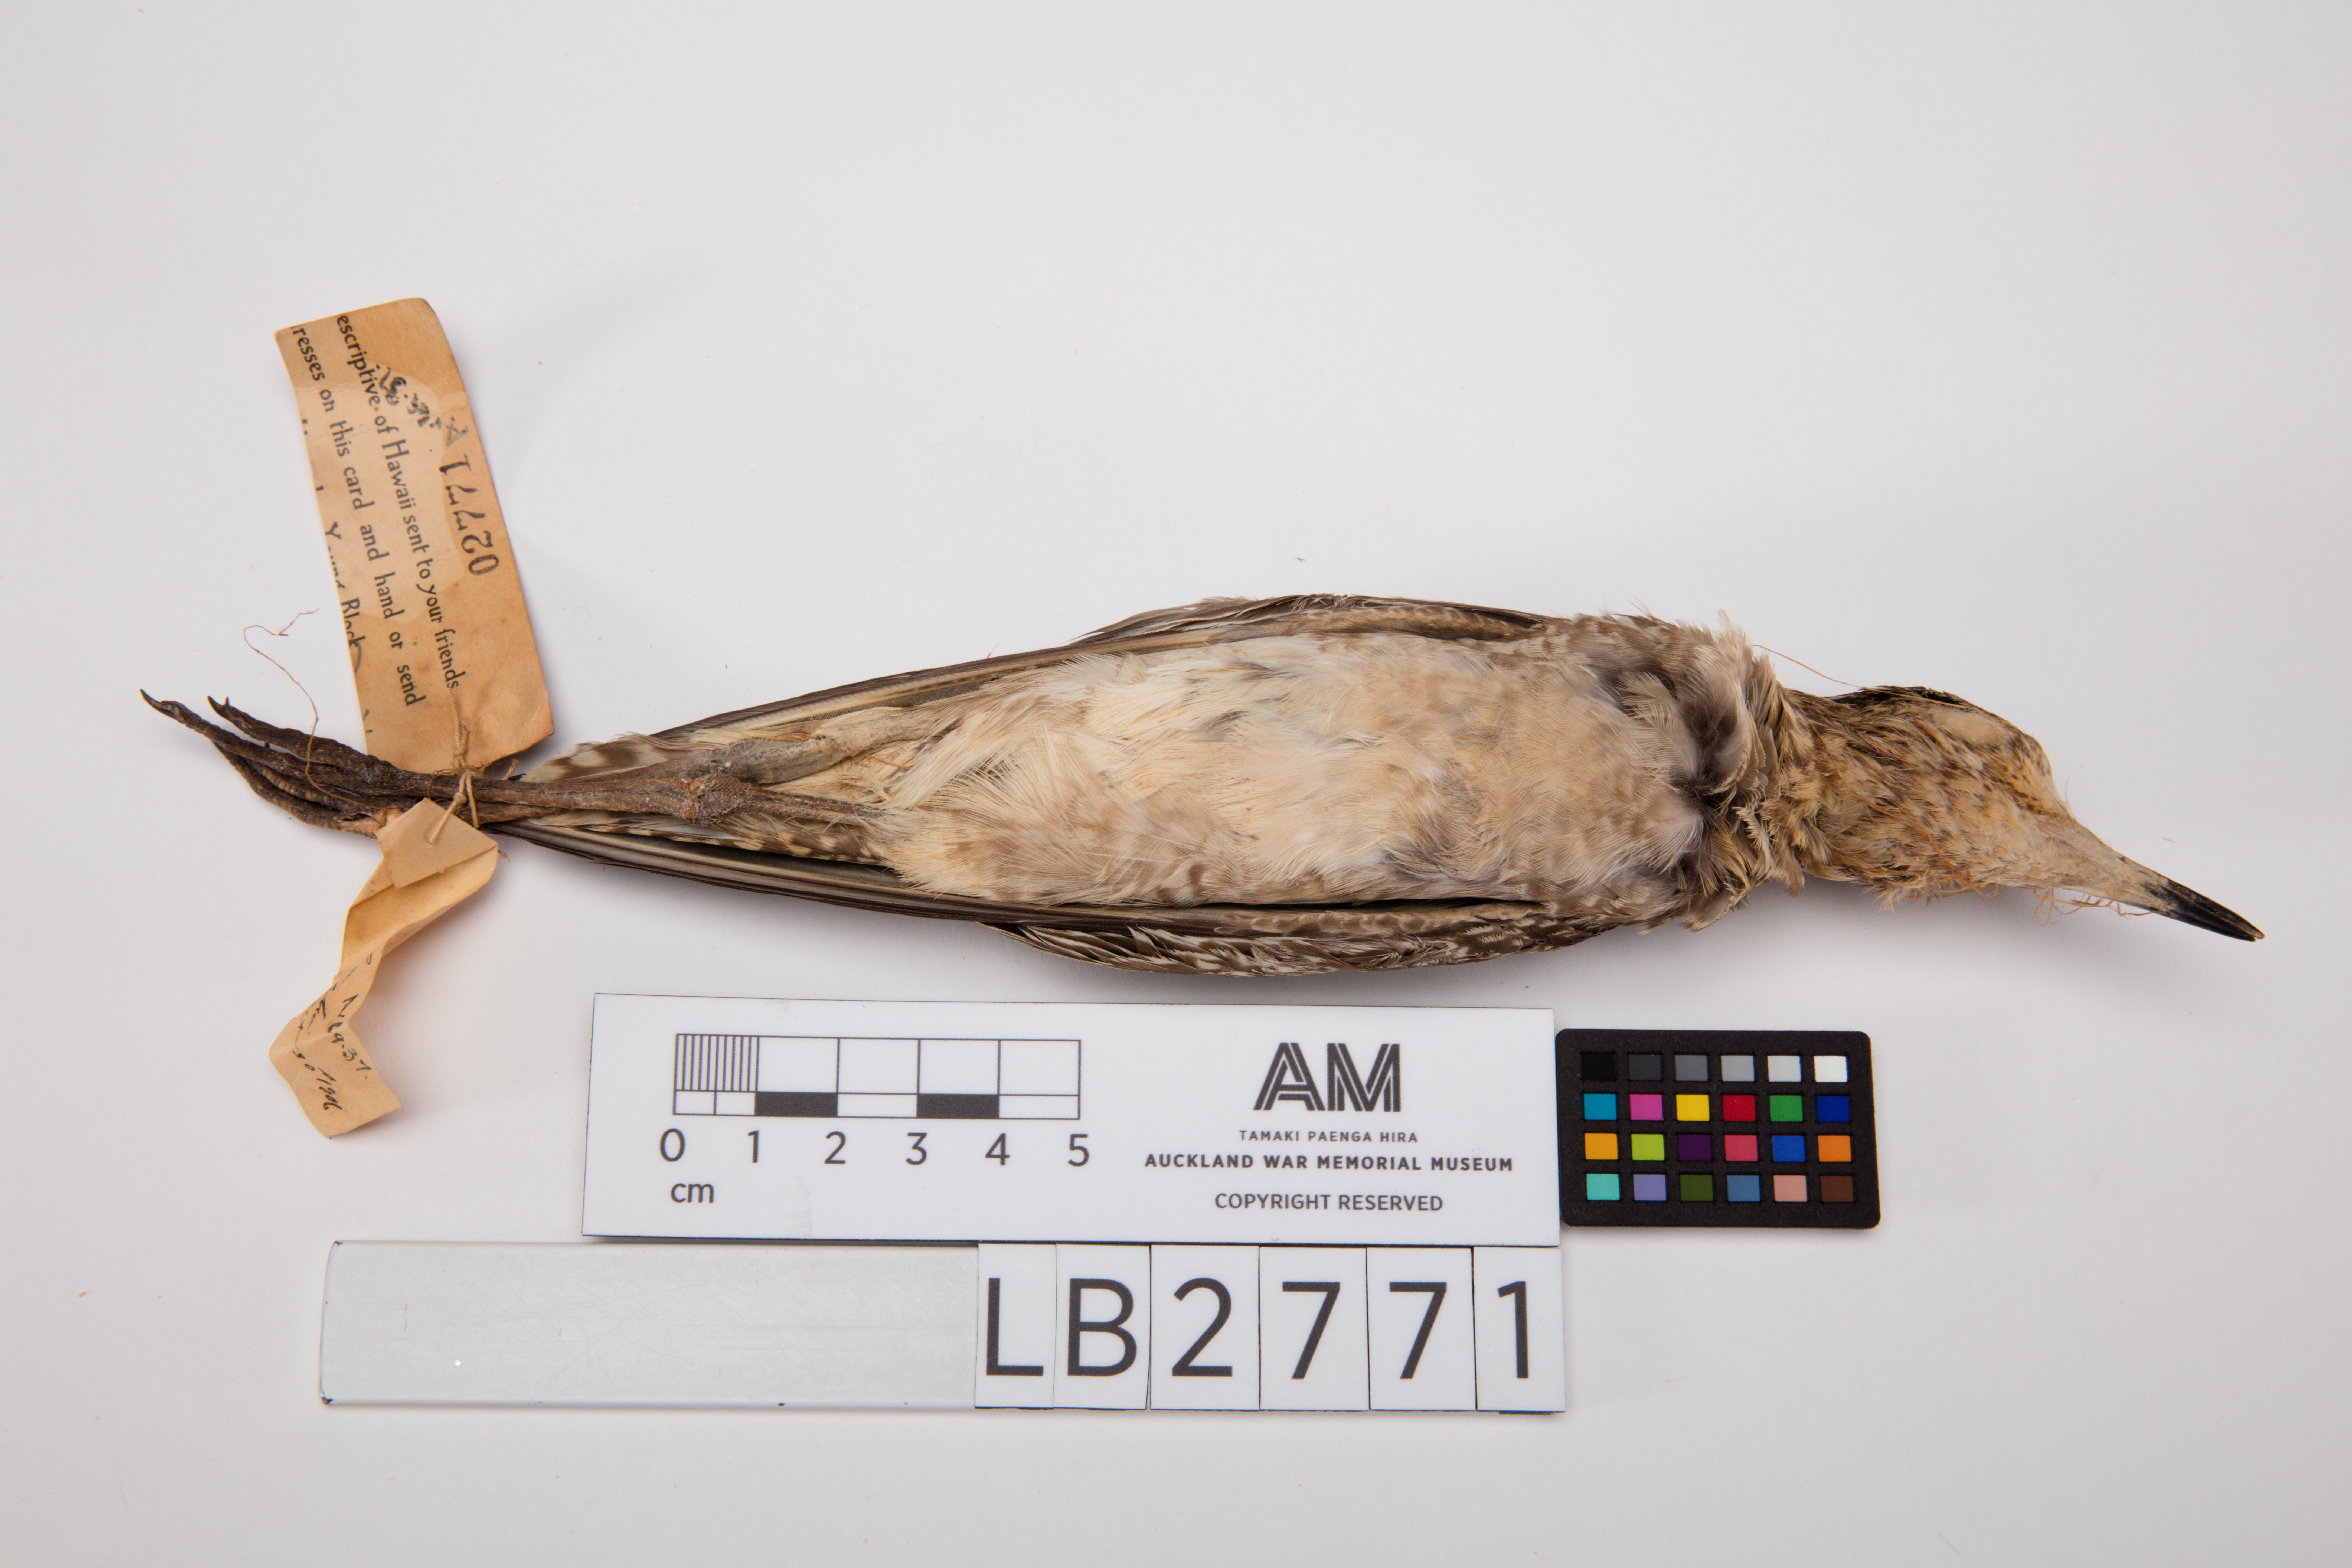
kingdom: Animalia
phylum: Chordata
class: Aves
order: Charadriiformes
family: Charadriidae
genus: Pluvialis
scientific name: Pluvialis fulva
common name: Pacific golden plover
